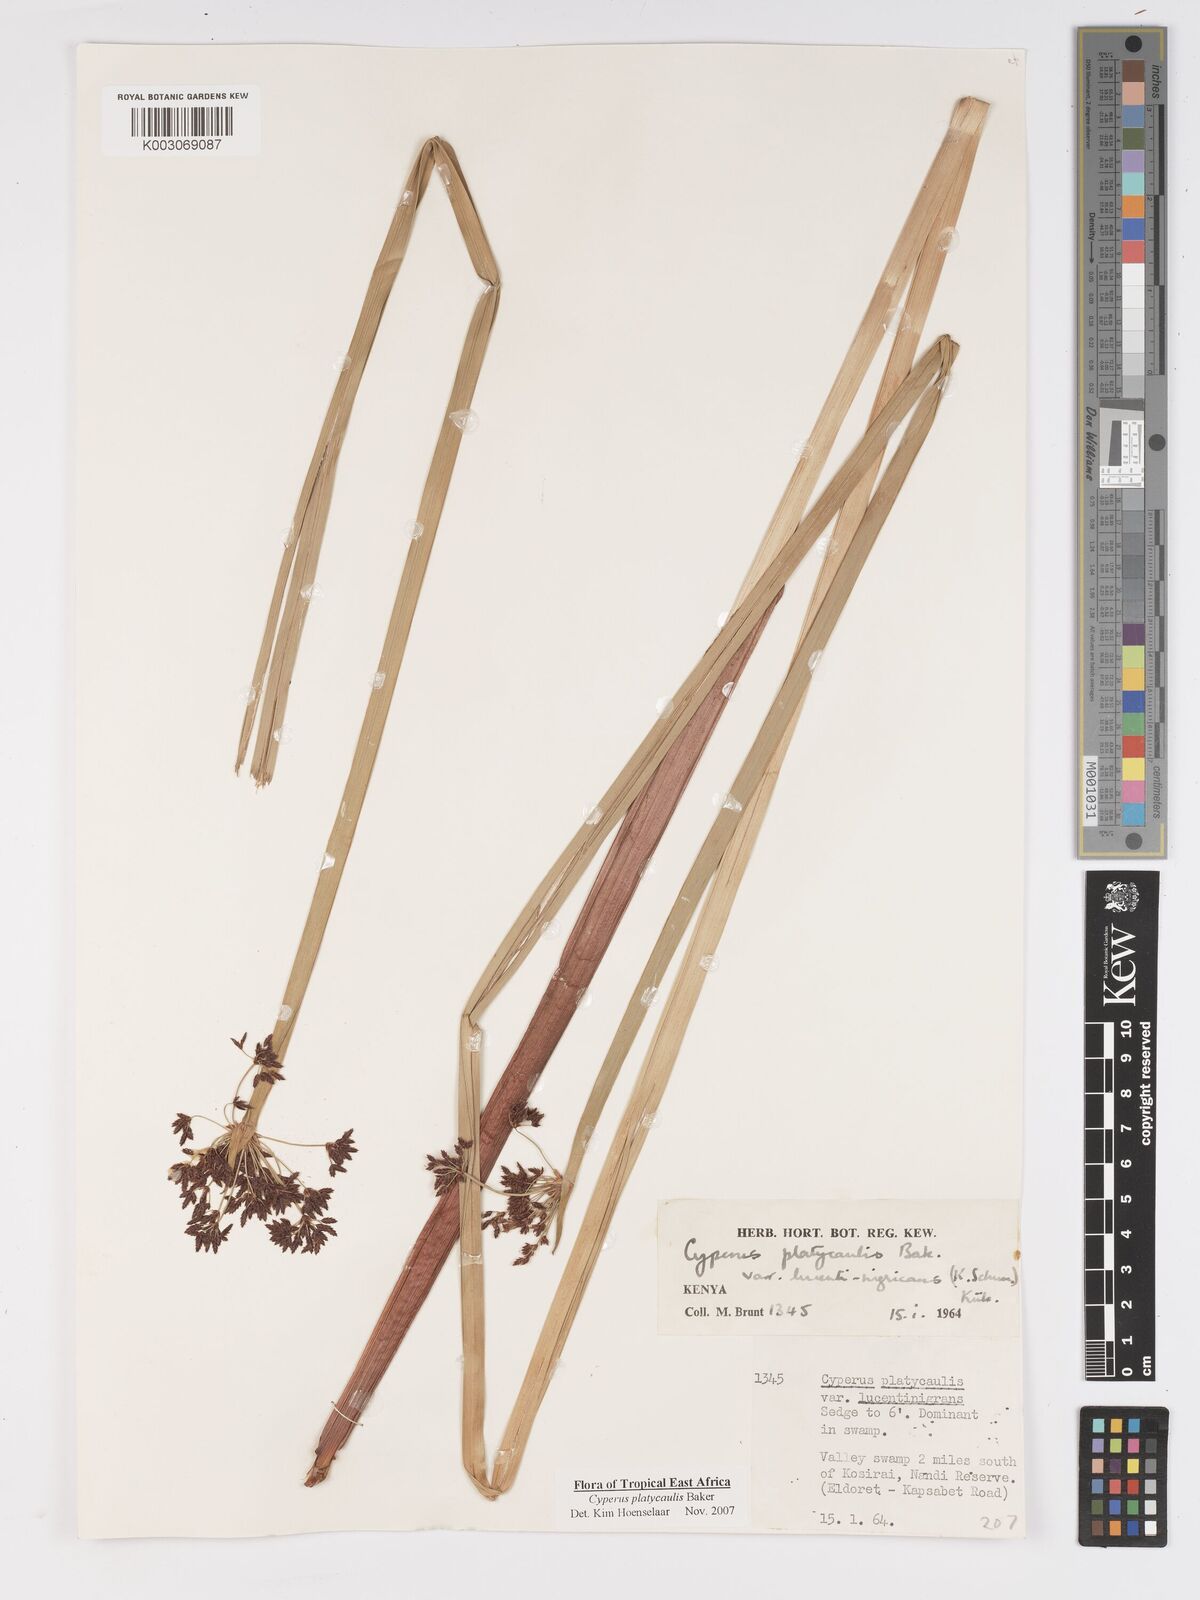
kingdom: Plantae
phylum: Tracheophyta
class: Liliopsida
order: Poales
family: Cyperaceae
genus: Cyperus
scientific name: Cyperus platycaulis
